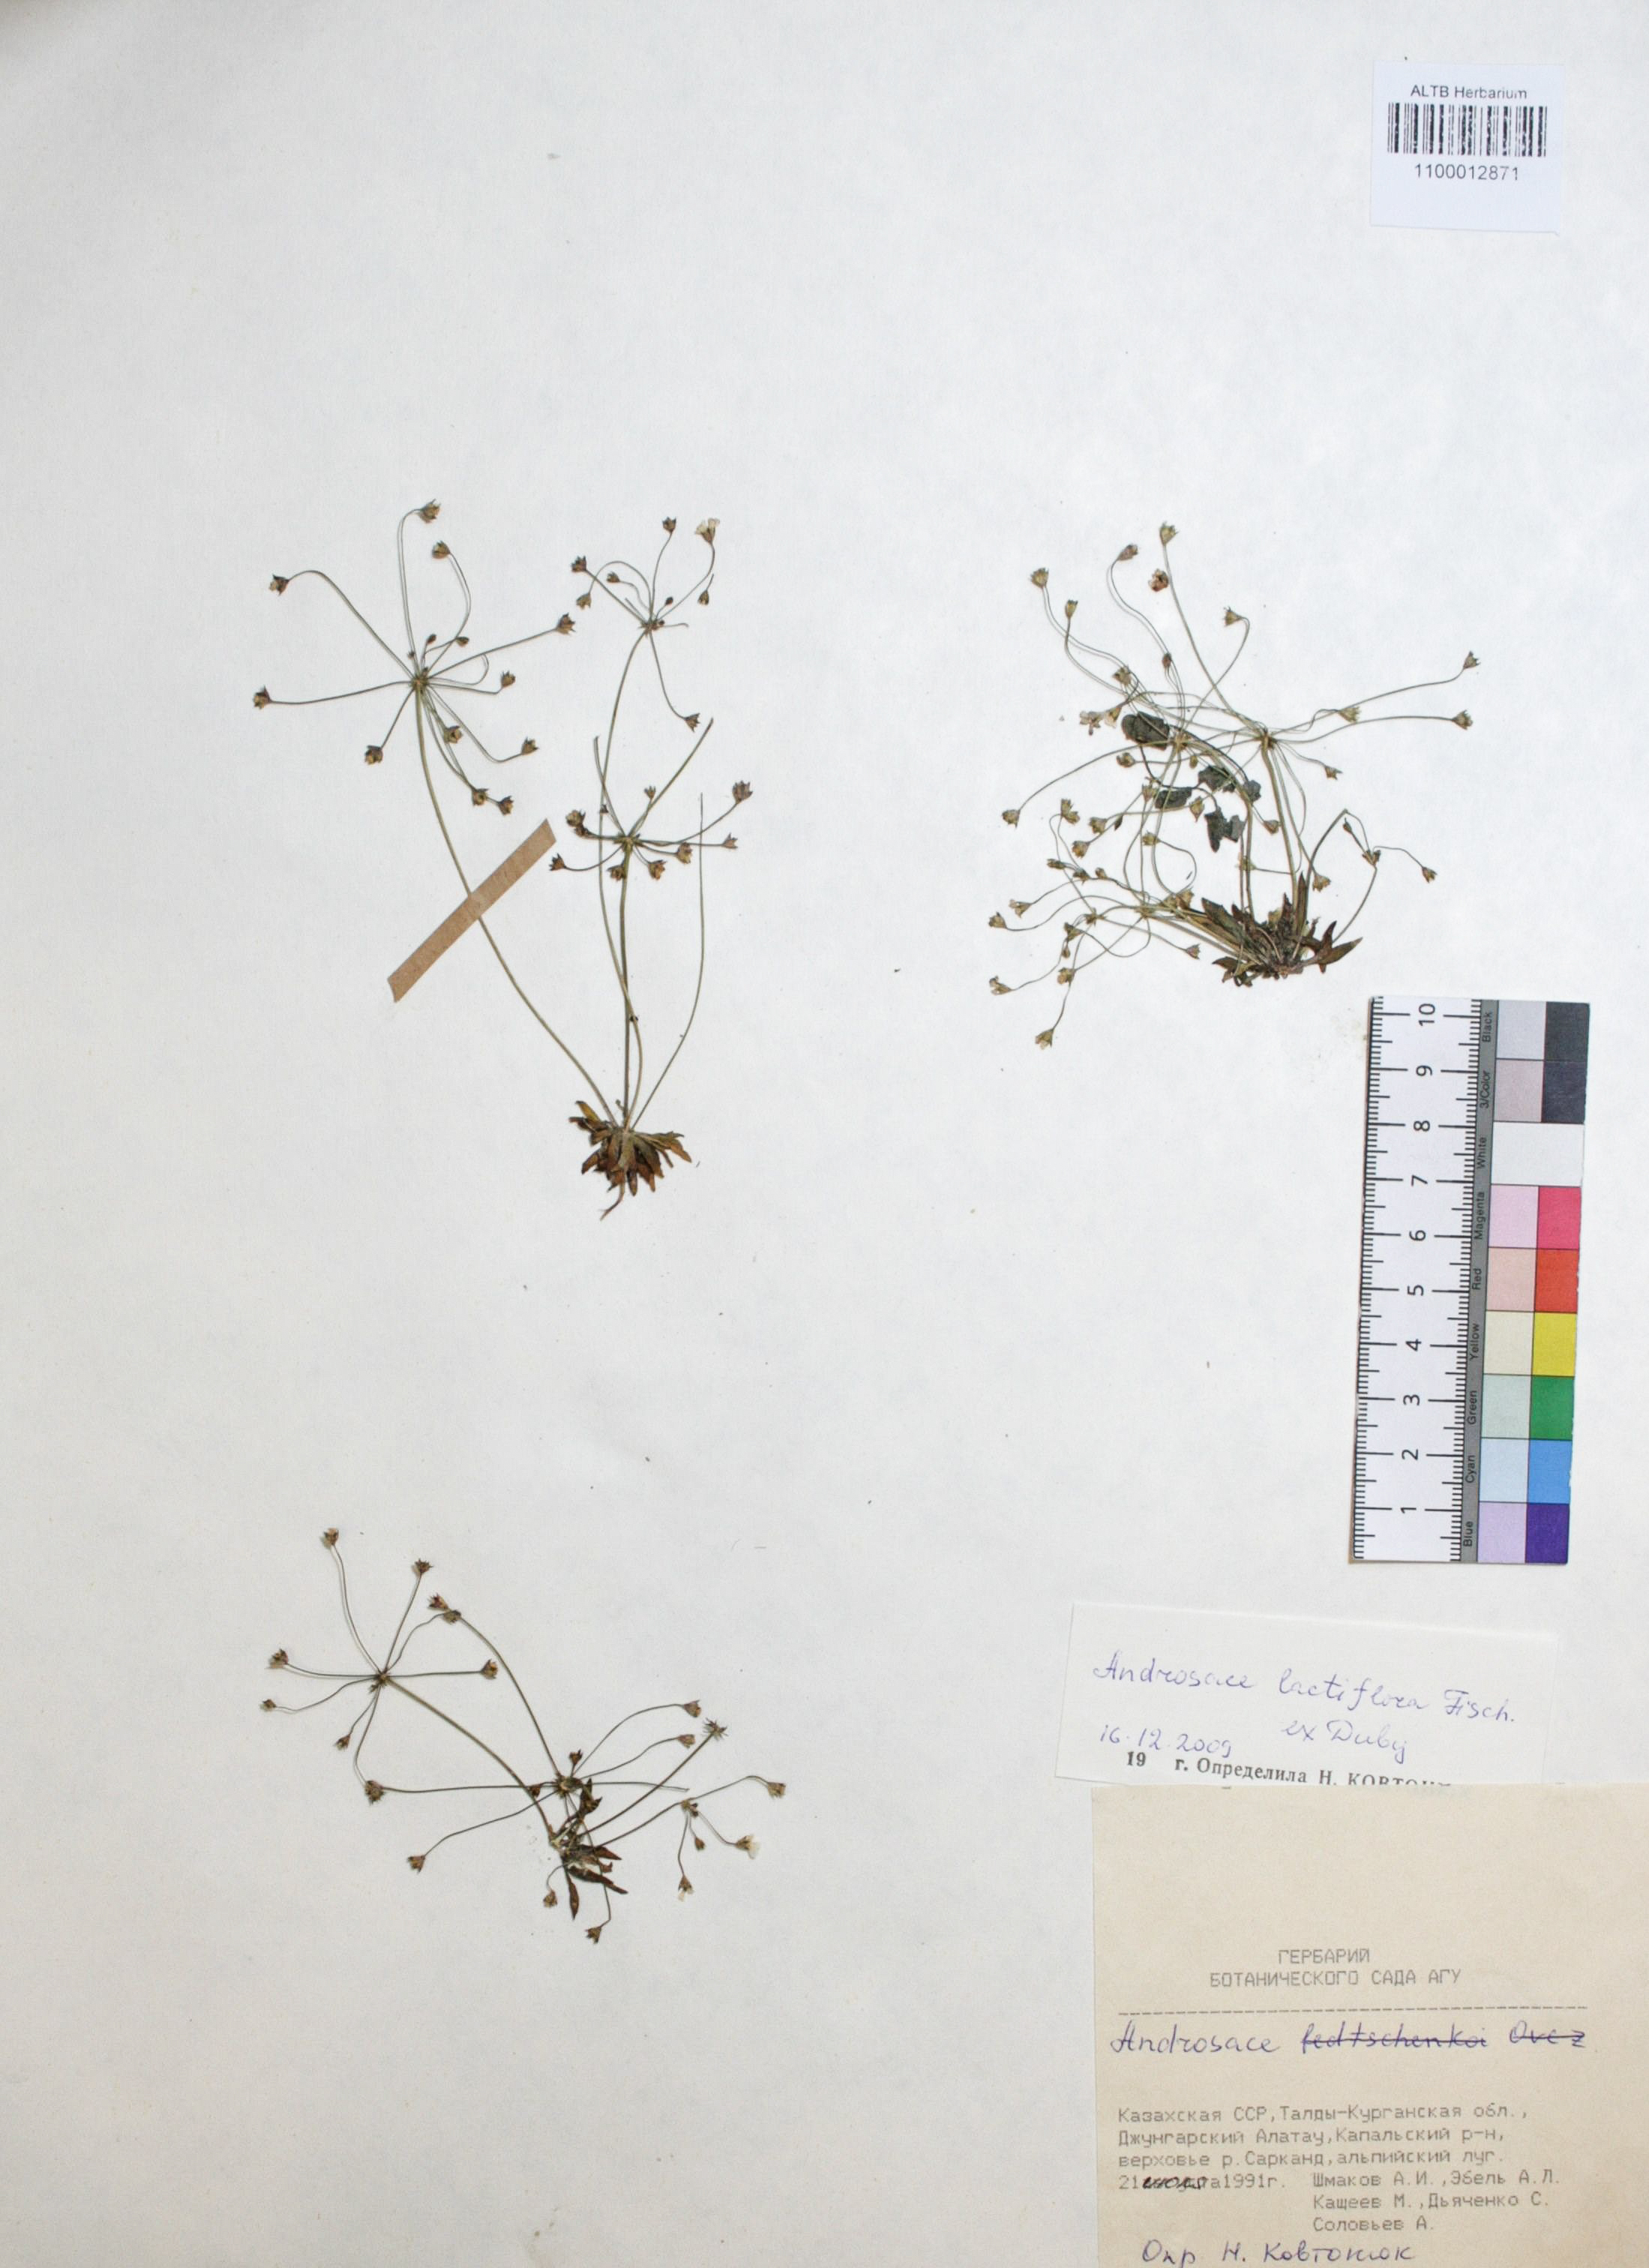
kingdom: Plantae
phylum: Tracheophyta
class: Magnoliopsida
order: Ericales
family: Primulaceae
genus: Androsace
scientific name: Androsace lactiflora
